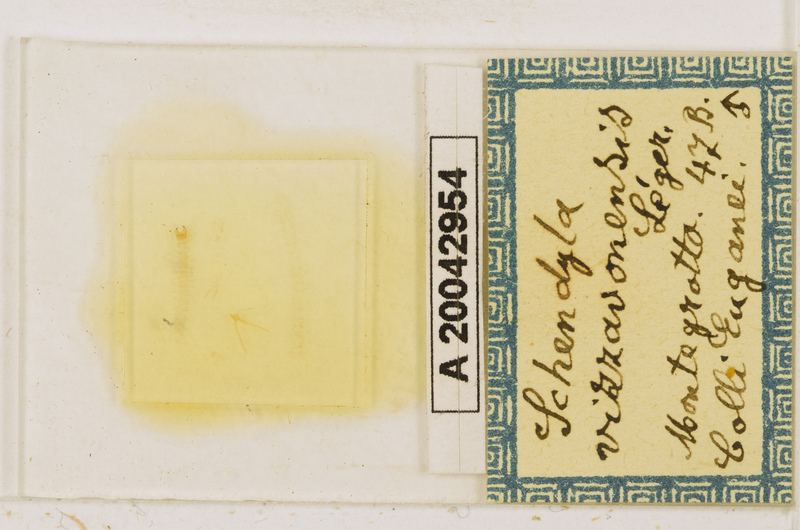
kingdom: Animalia
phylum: Arthropoda
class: Chilopoda
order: Geophilomorpha
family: Schendylidae
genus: Schendyla
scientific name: Schendyla vizzavonae
